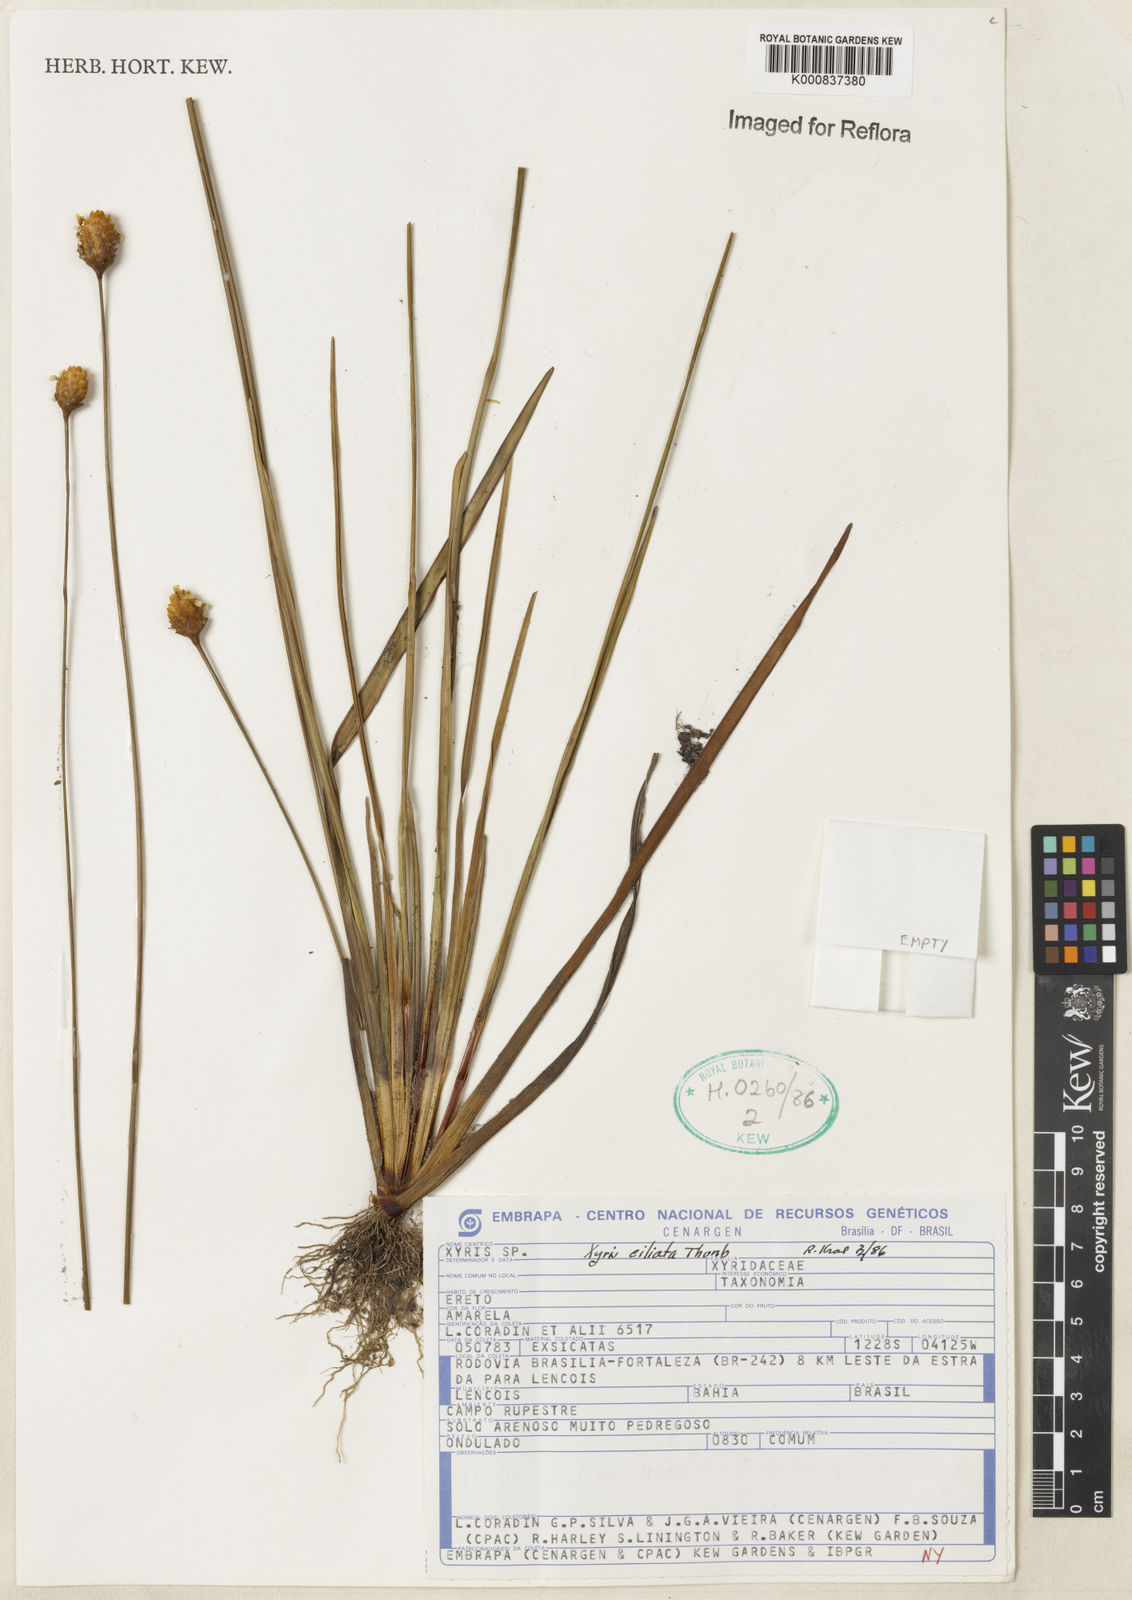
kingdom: Plantae
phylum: Tracheophyta
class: Liliopsida
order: Poales
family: Xyridaceae
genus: Xyris
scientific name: Xyris ciliata
